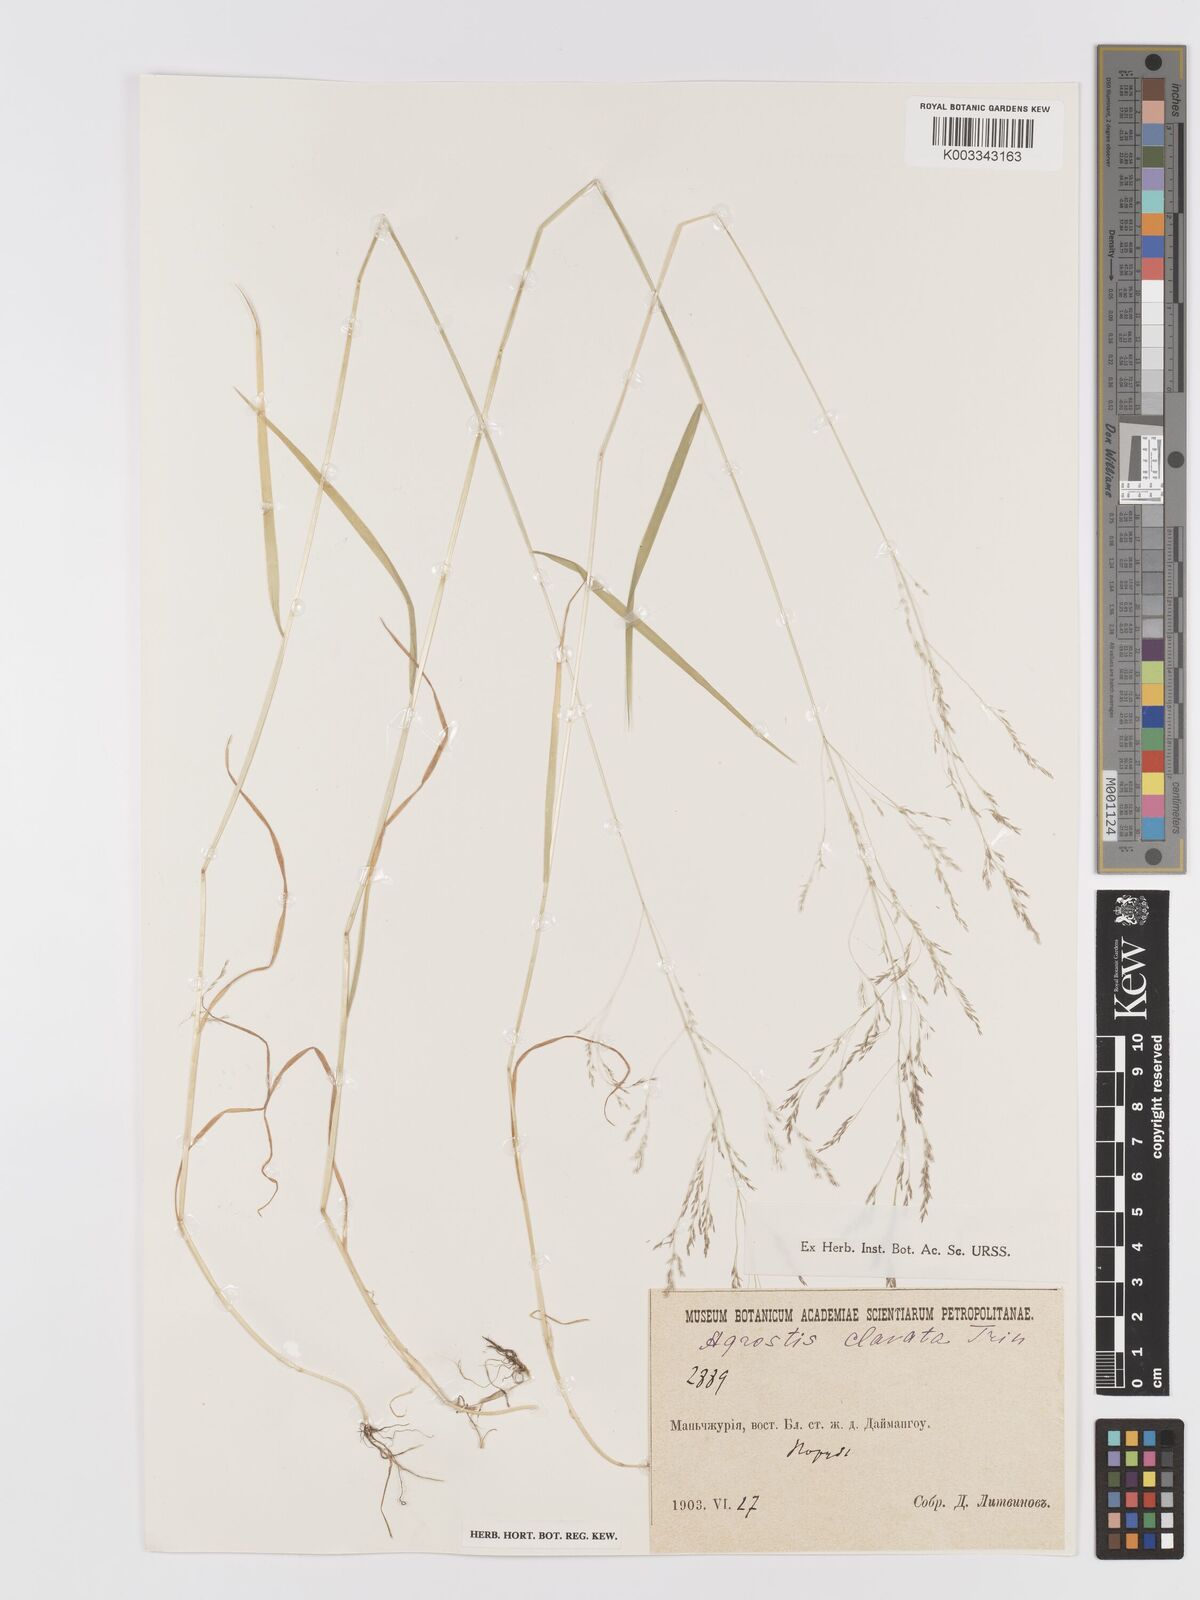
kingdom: Plantae
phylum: Tracheophyta
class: Liliopsida
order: Poales
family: Poaceae
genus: Agrostis
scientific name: Agrostis clavata
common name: Clavate bent
